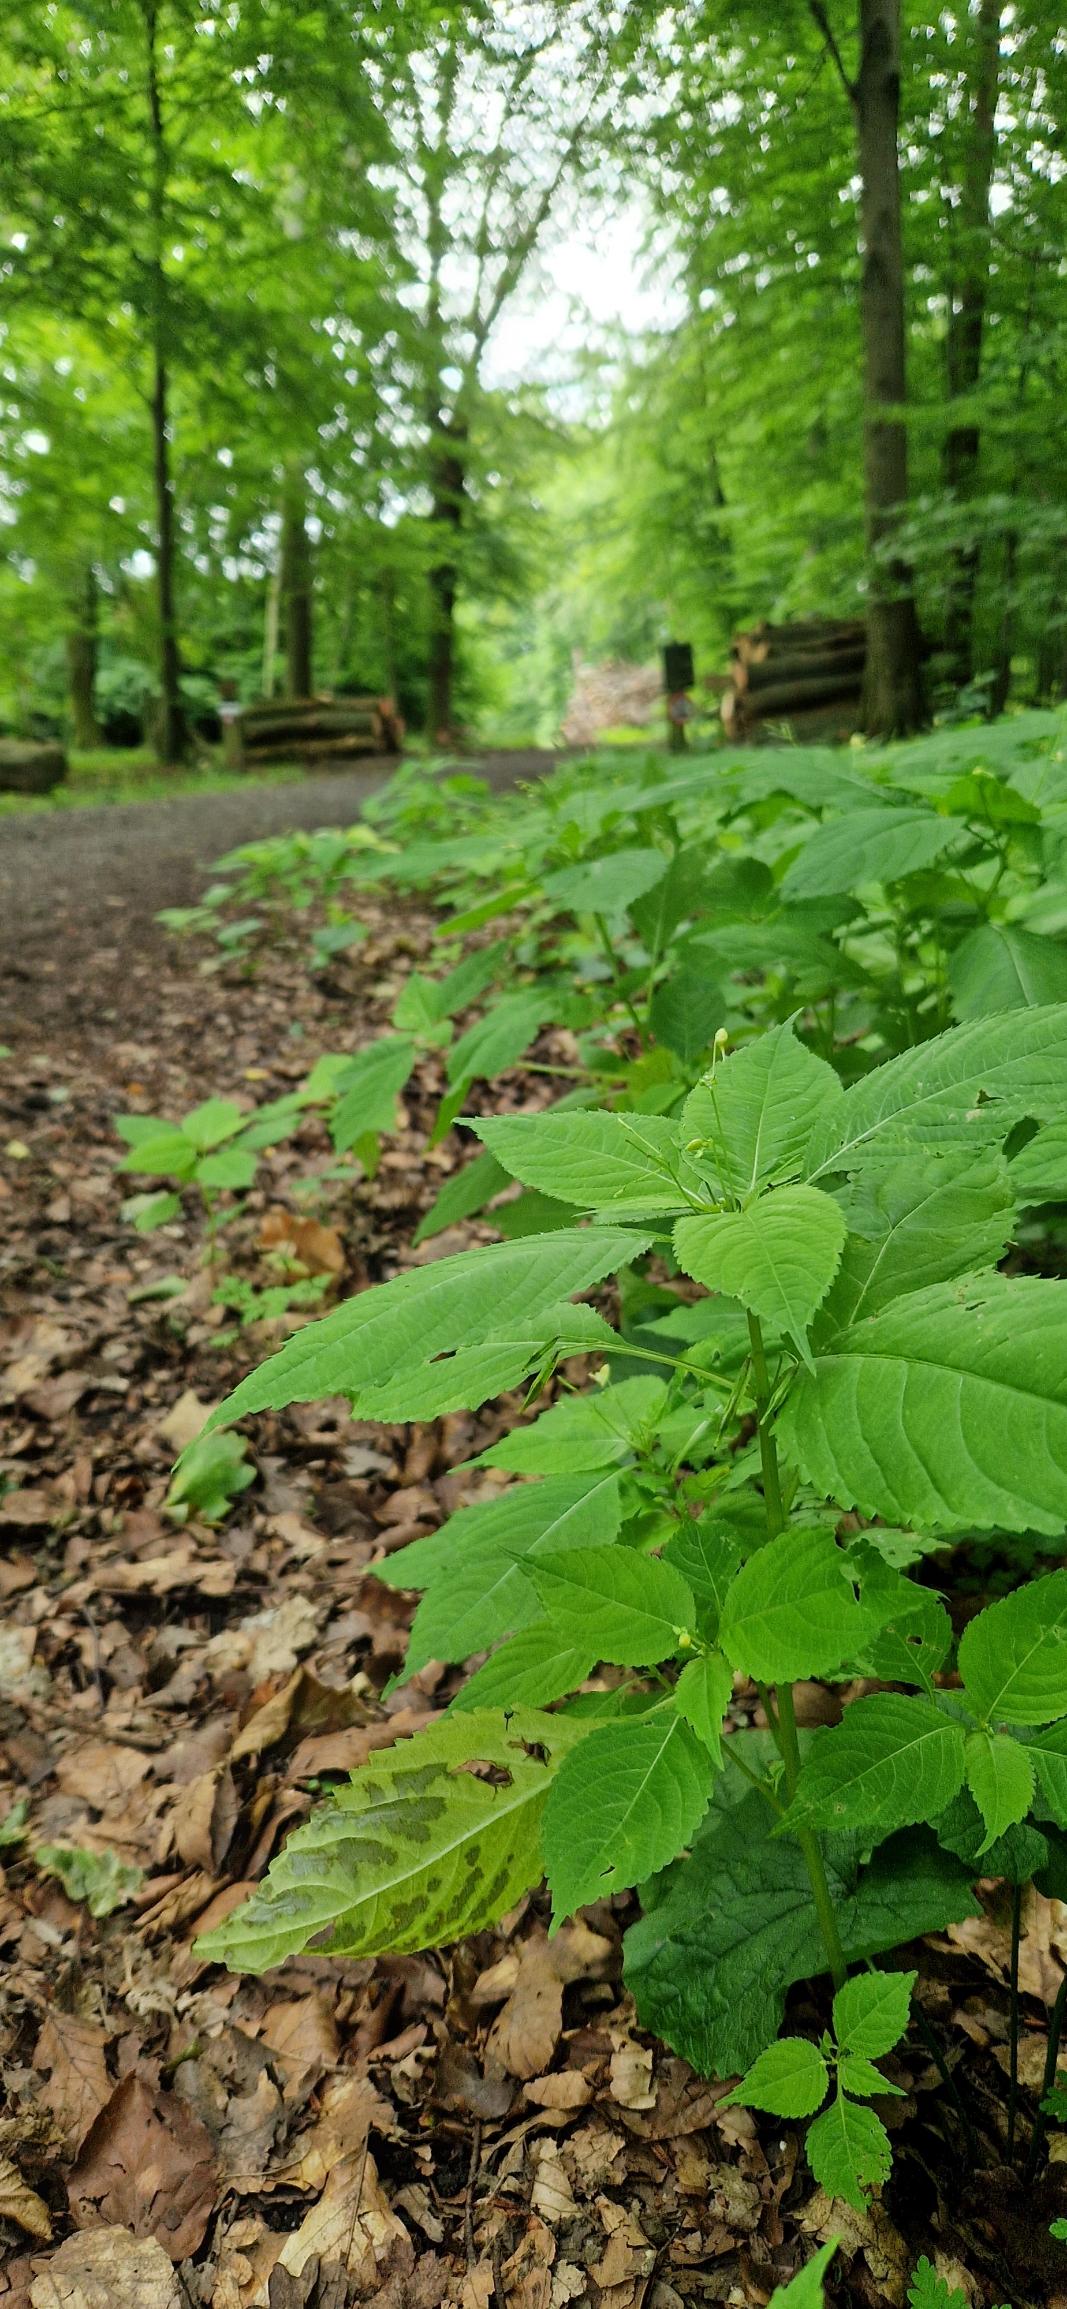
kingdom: Plantae
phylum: Tracheophyta
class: Magnoliopsida
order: Ericales
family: Balsaminaceae
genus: Impatiens
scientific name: Impatiens parviflora
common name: Småblomstret balsamin
